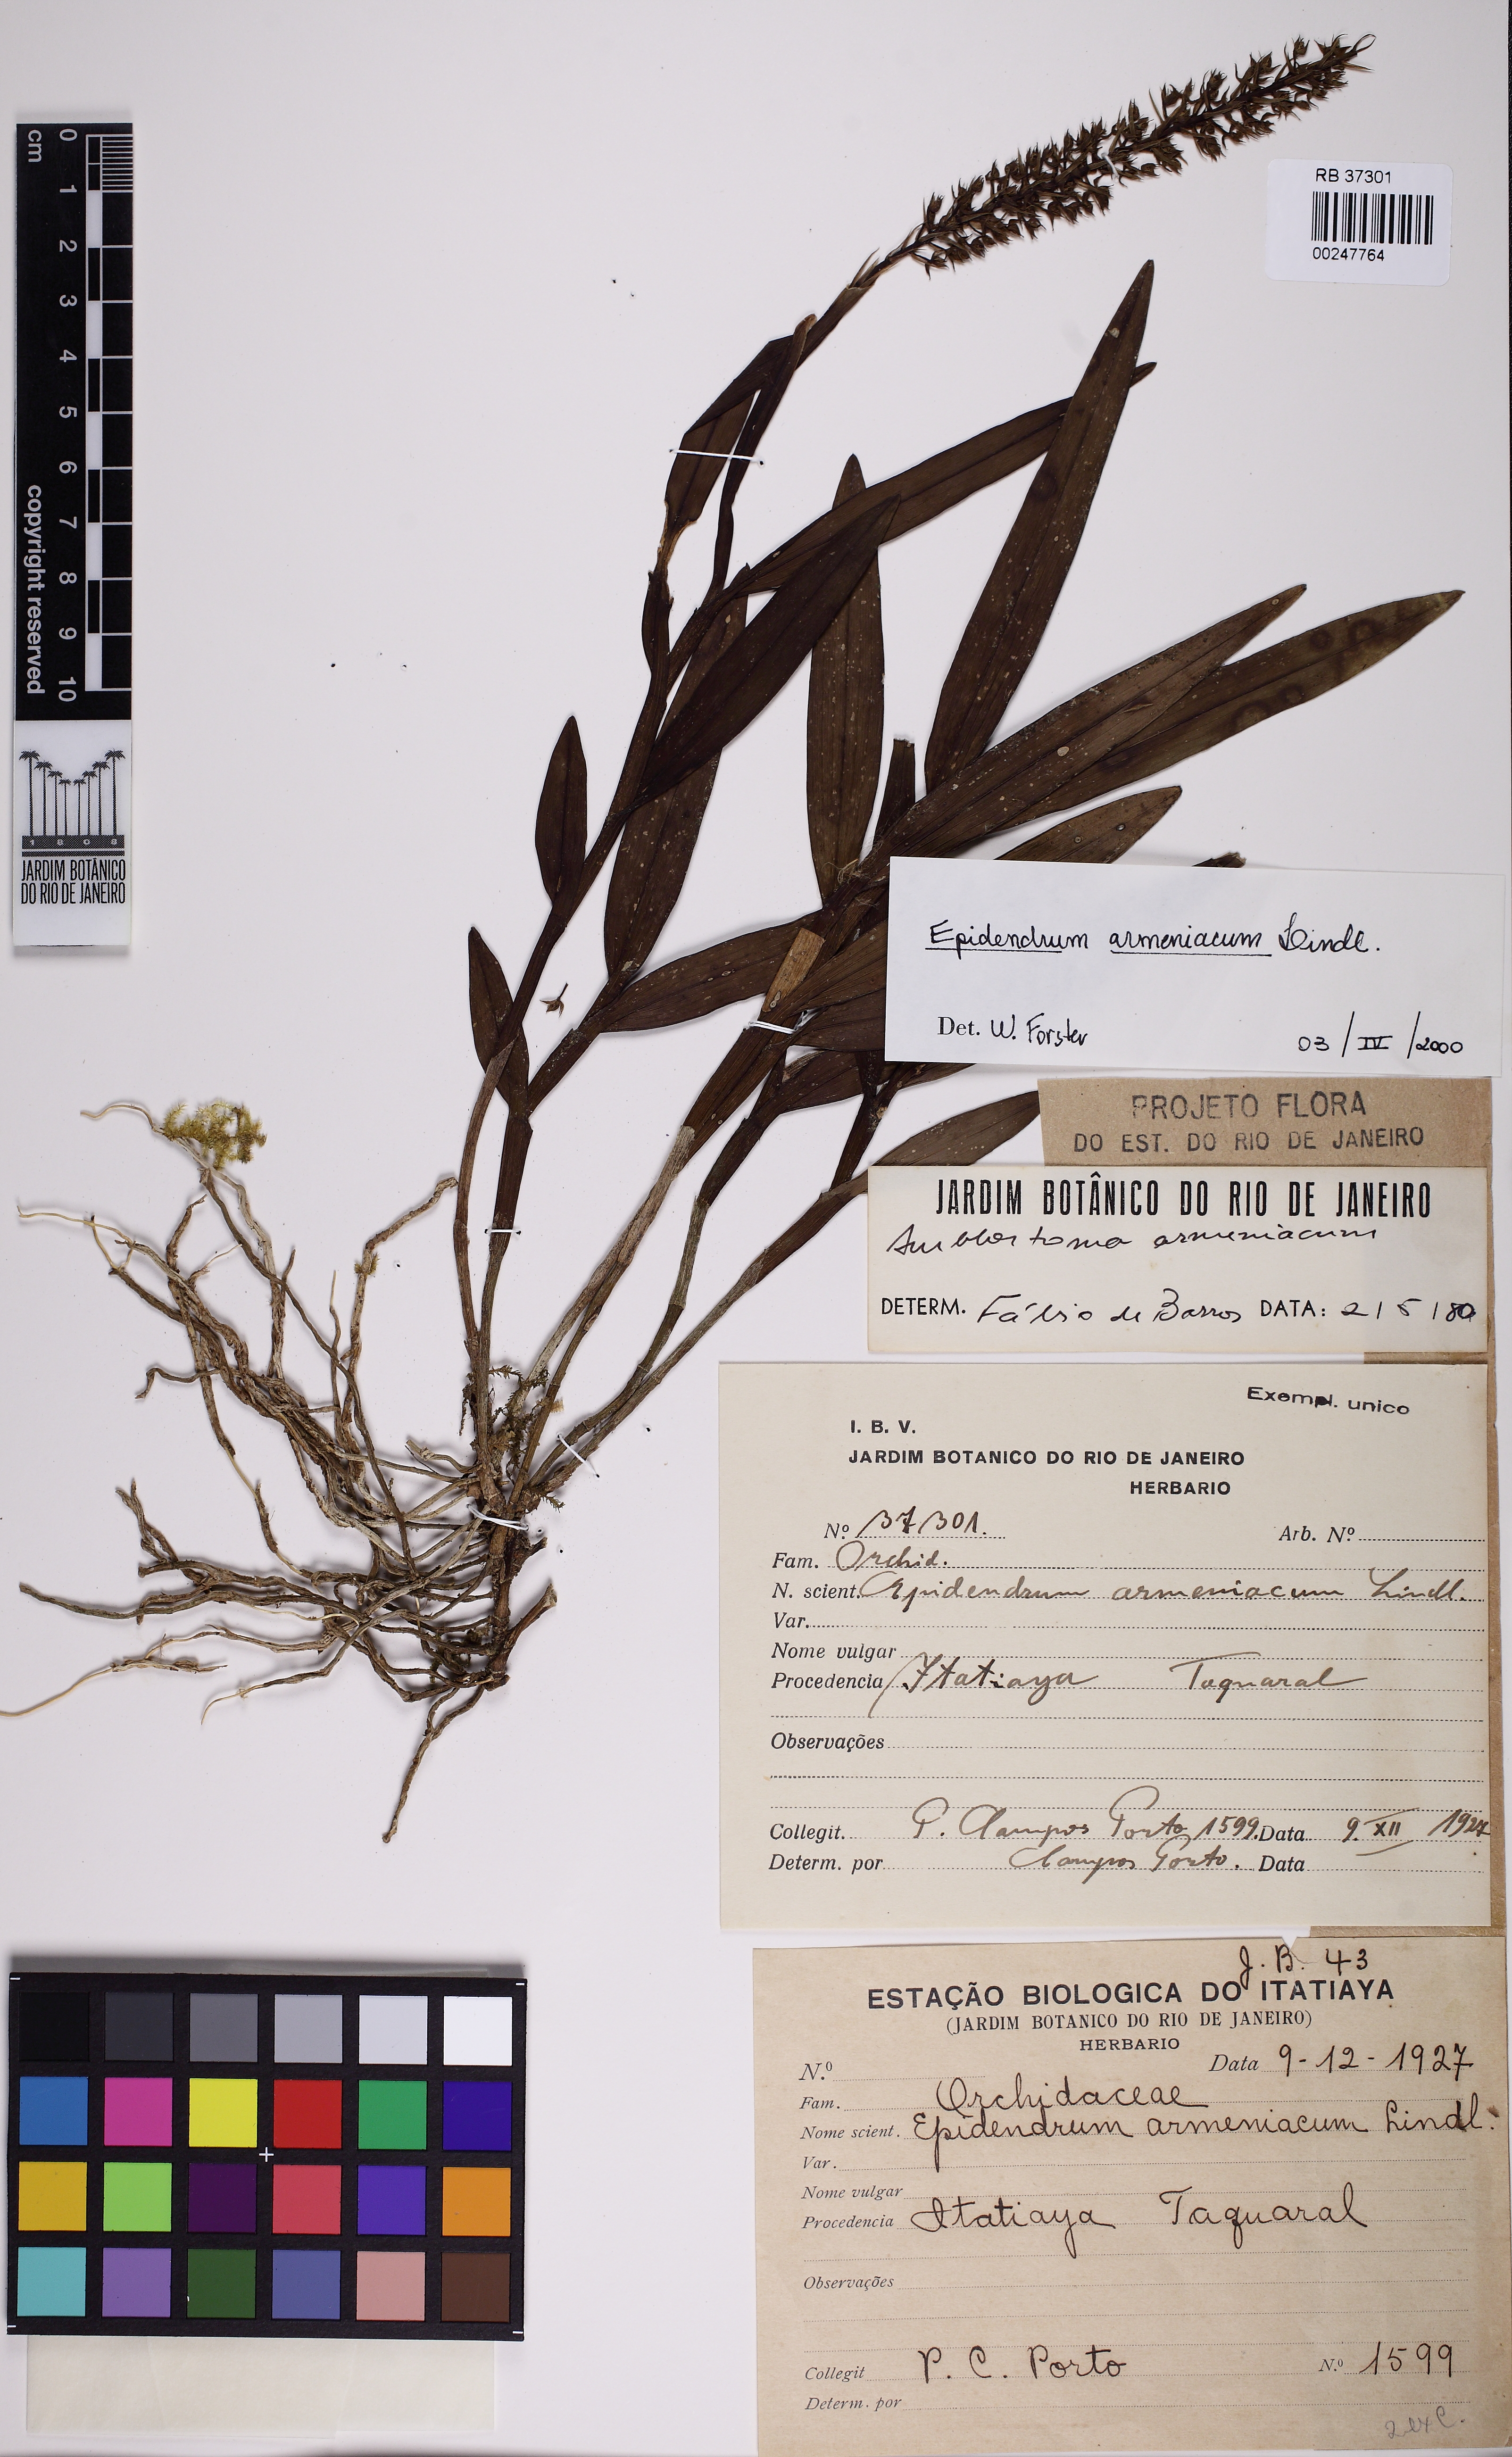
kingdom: Plantae
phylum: Tracheophyta
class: Liliopsida
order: Asparagales
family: Orchidaceae
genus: Epidendrum
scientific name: Epidendrum armeniacum
